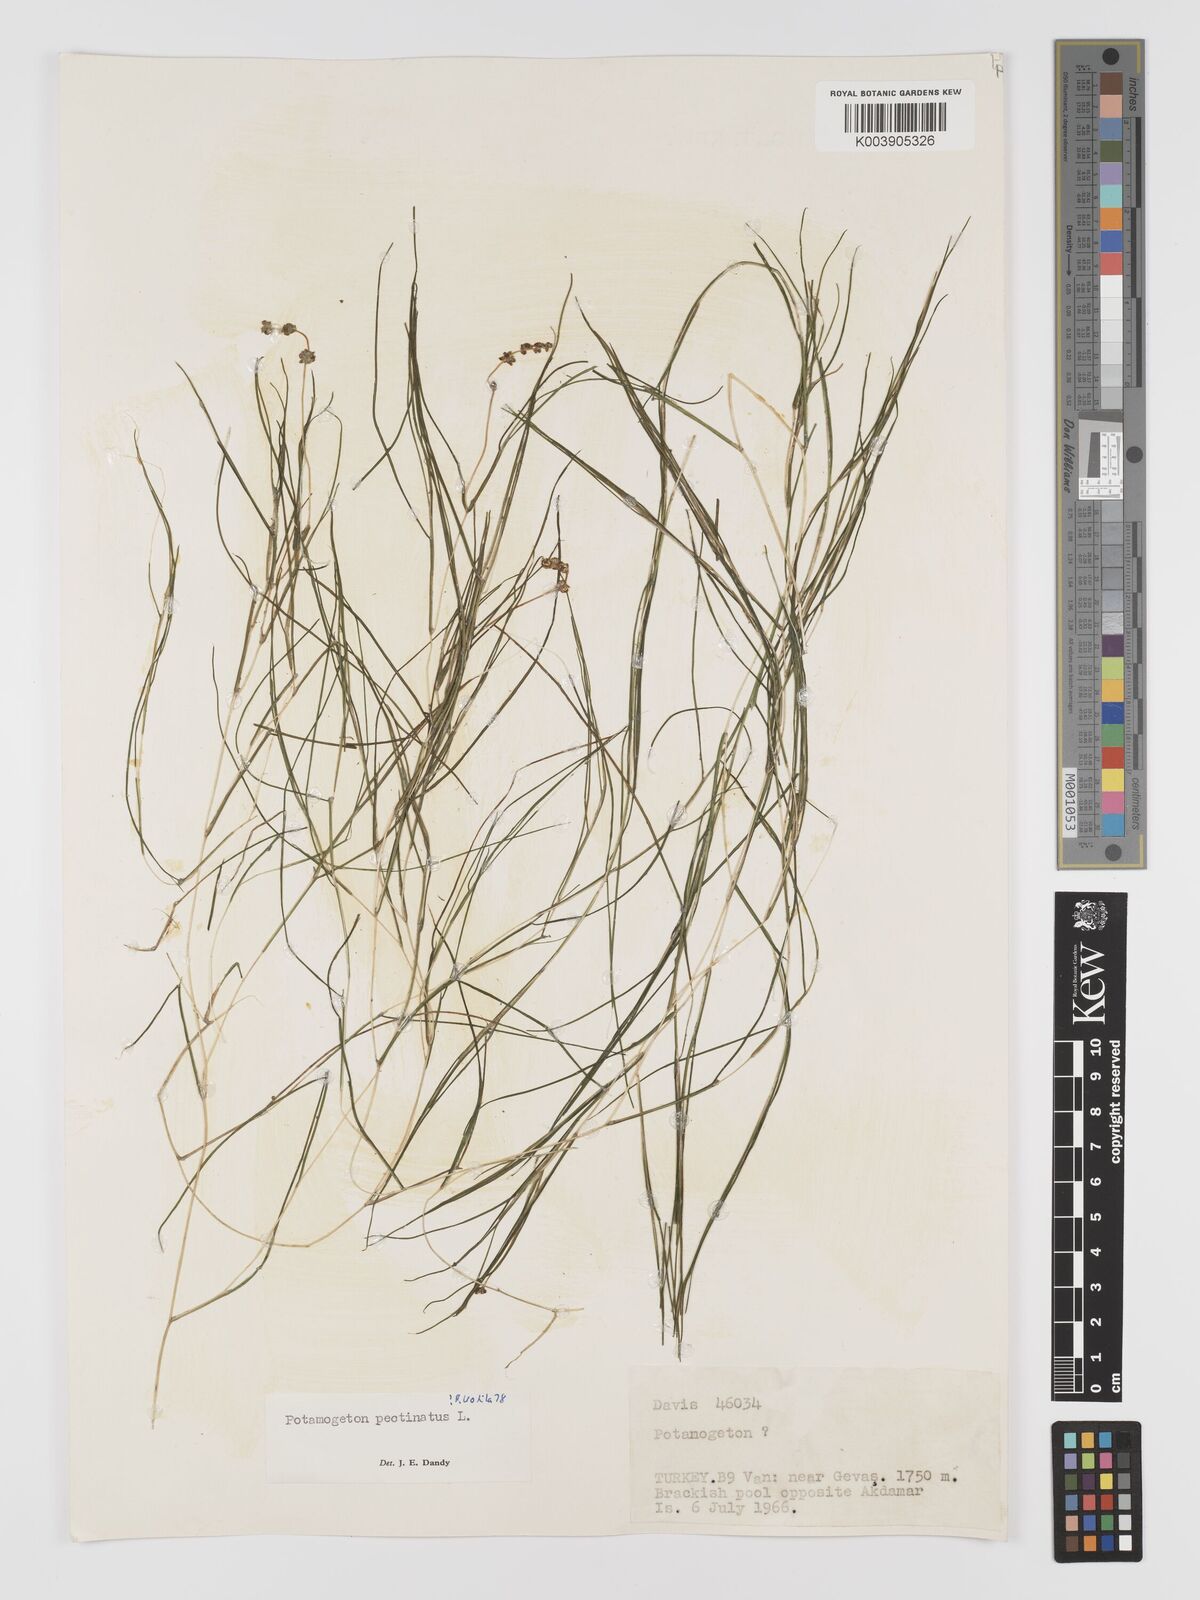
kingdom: Plantae
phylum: Tracheophyta
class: Liliopsida
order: Alismatales
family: Potamogetonaceae
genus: Stuckenia
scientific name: Stuckenia pectinata
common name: Sago pondweed
